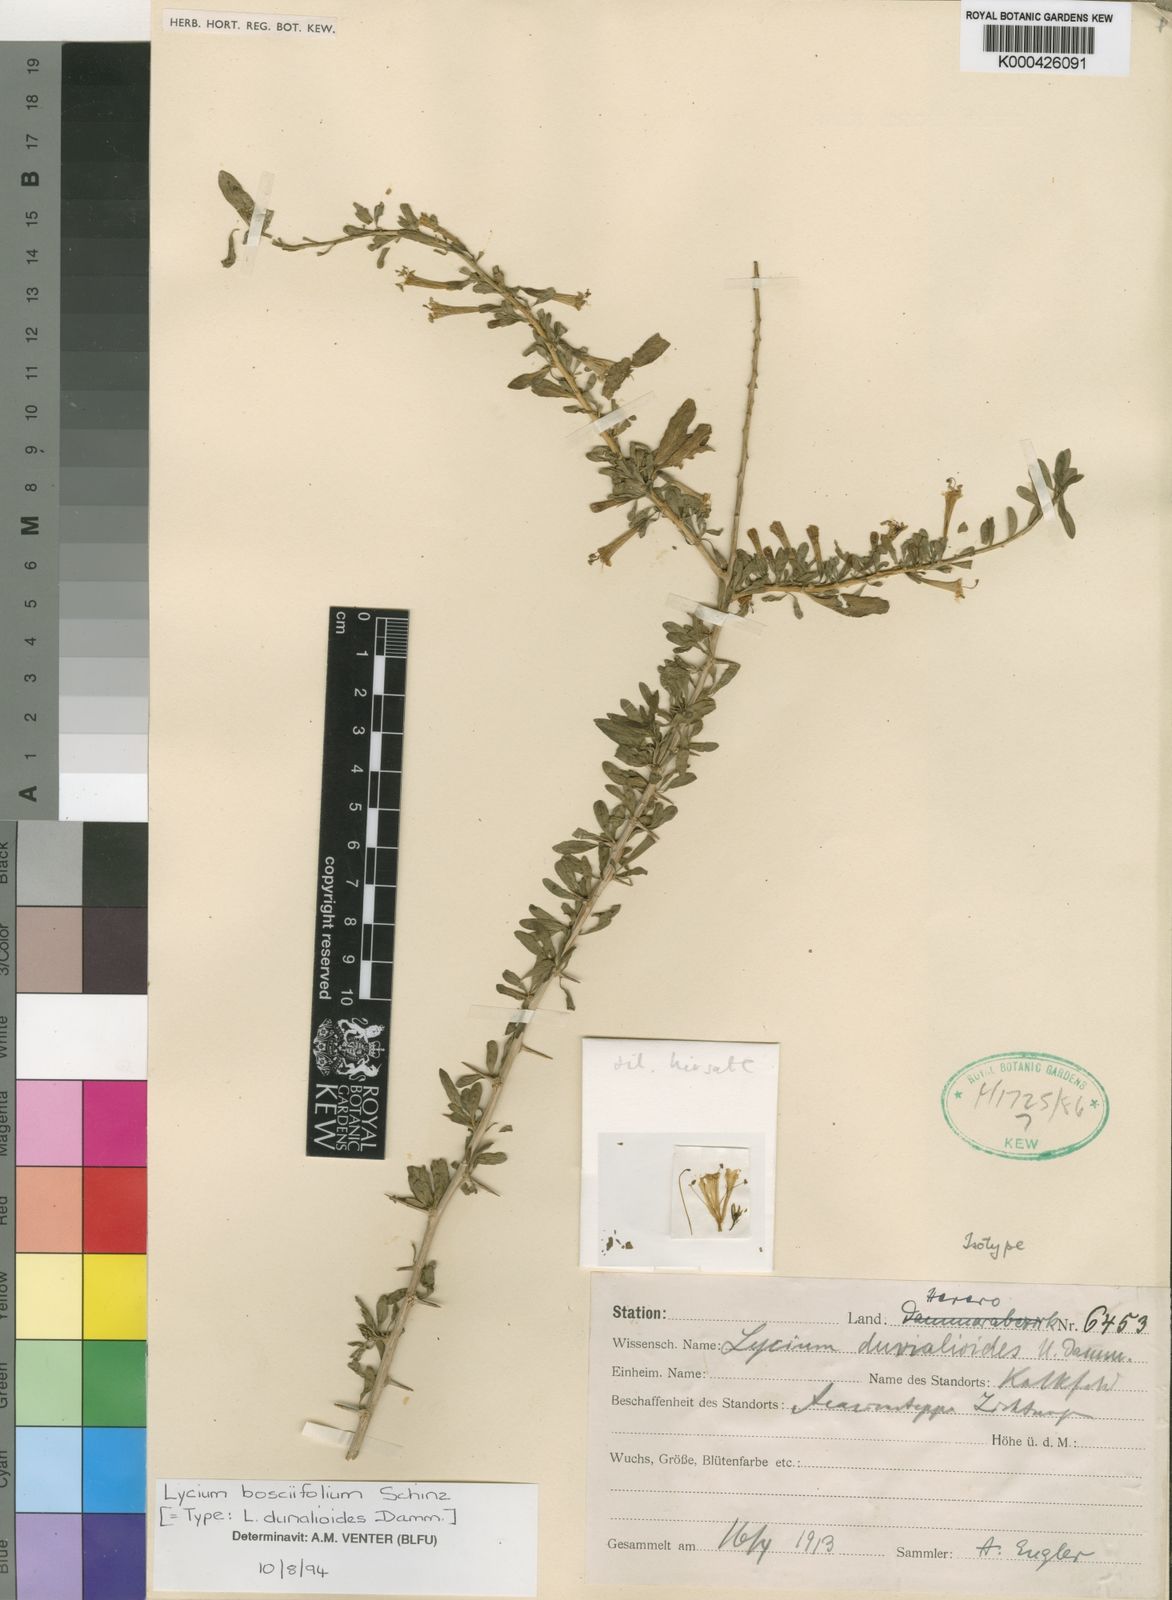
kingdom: Plantae
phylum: Tracheophyta
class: Magnoliopsida
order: Solanales
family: Solanaceae
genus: Lycium
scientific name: Lycium bosciifolium
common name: Limpopo honey-thorn
